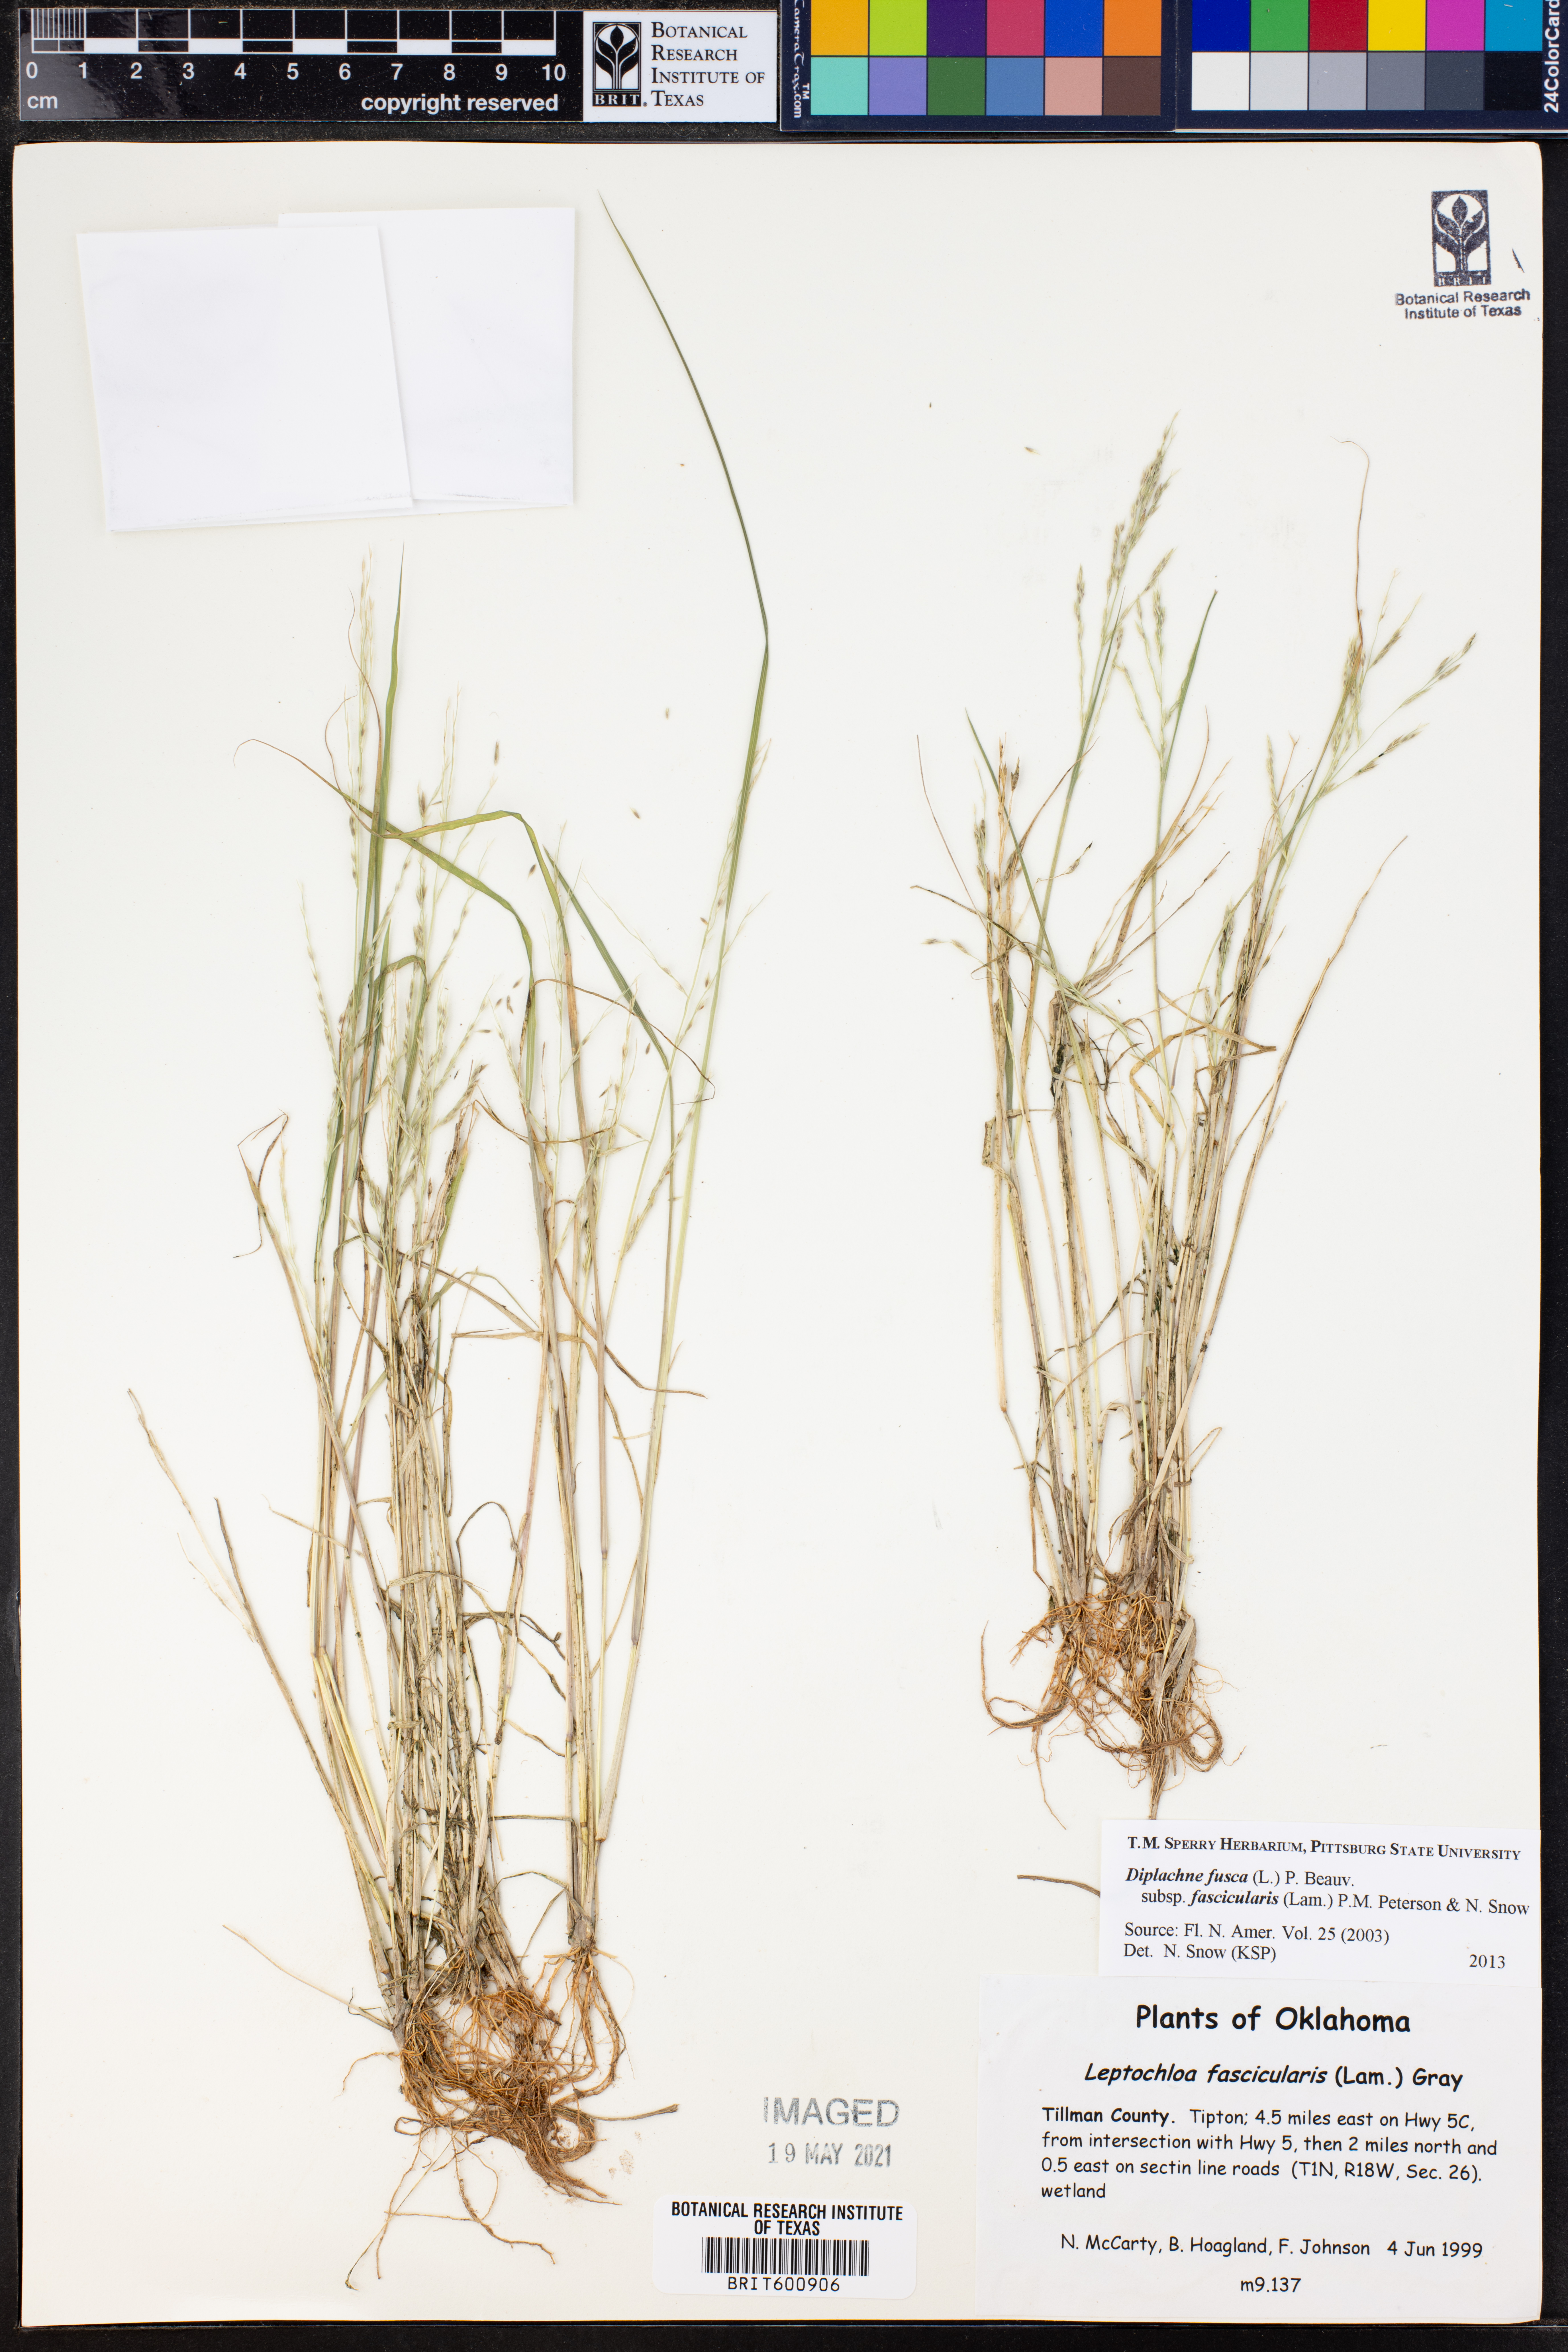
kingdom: Plantae
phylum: Tracheophyta
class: Liliopsida
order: Poales
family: Poaceae
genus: Diplachne
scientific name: Diplachne fusca
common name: Brown beetle grass
